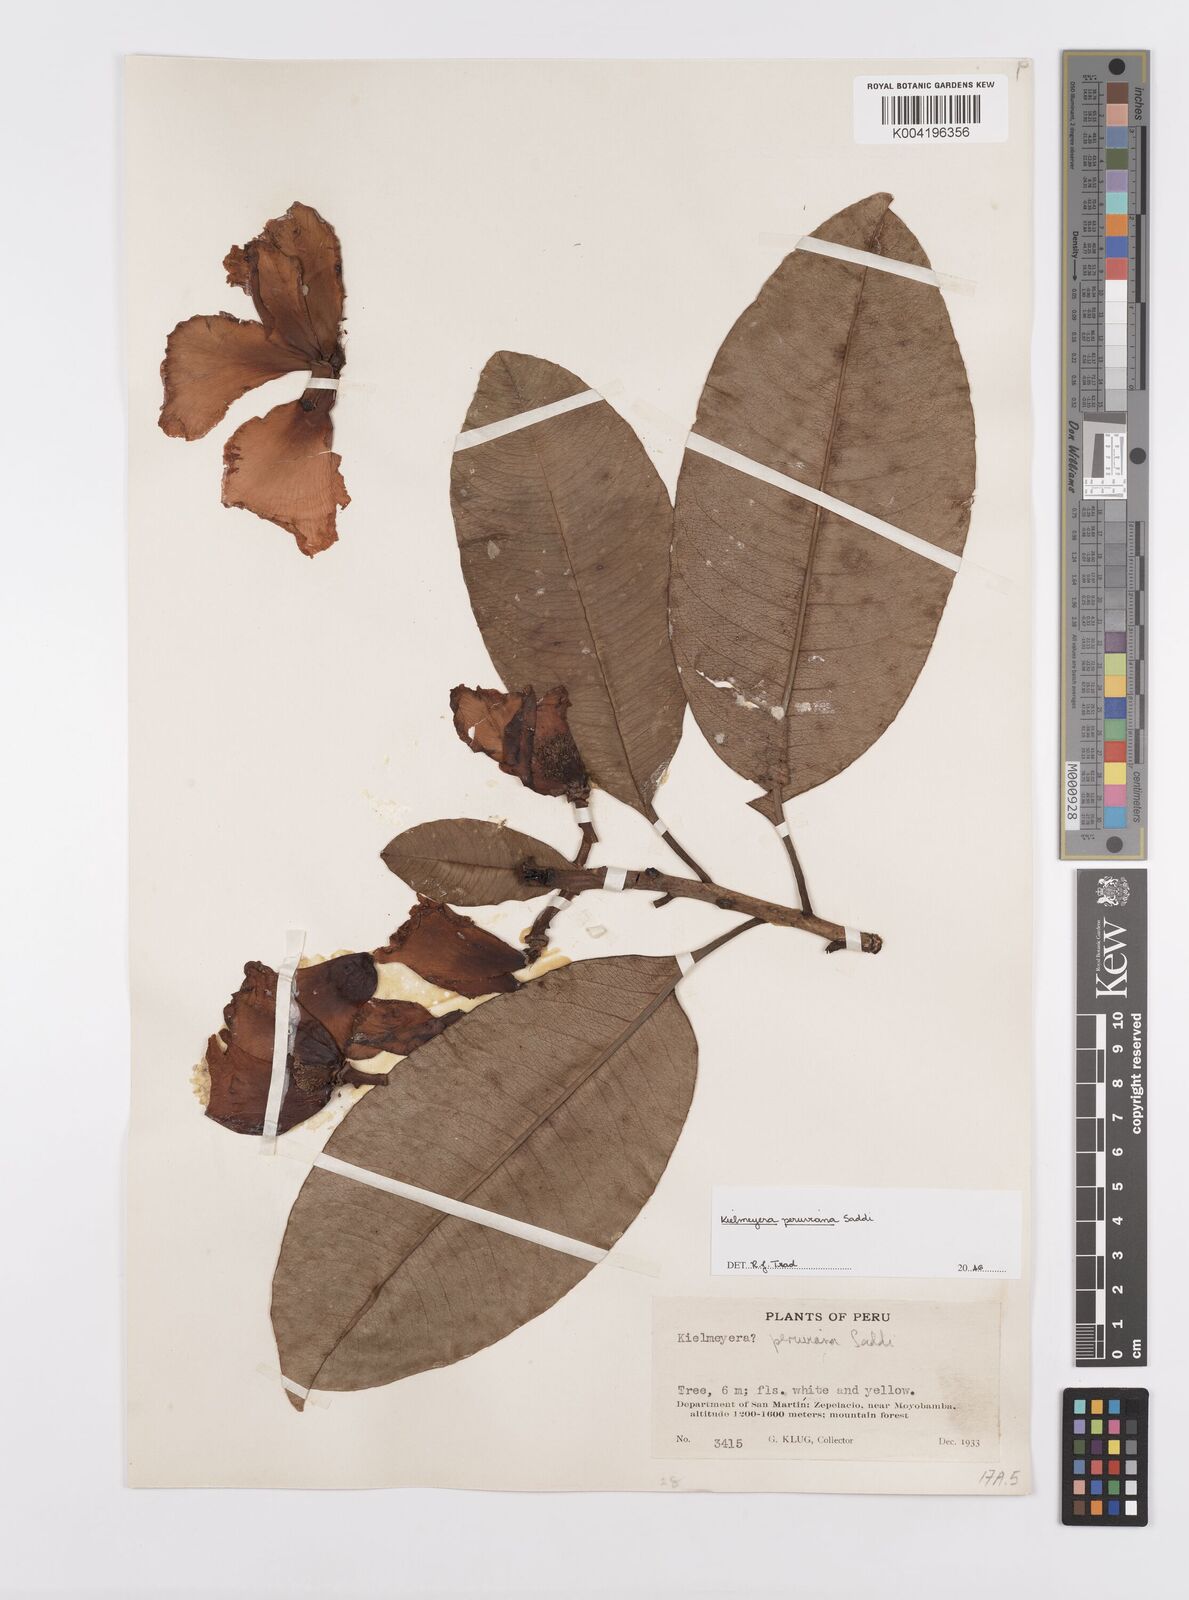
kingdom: Plantae
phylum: Tracheophyta
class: Magnoliopsida
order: Malpighiales
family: Calophyllaceae
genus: Kielmeyera
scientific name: Kielmeyera peruviana
